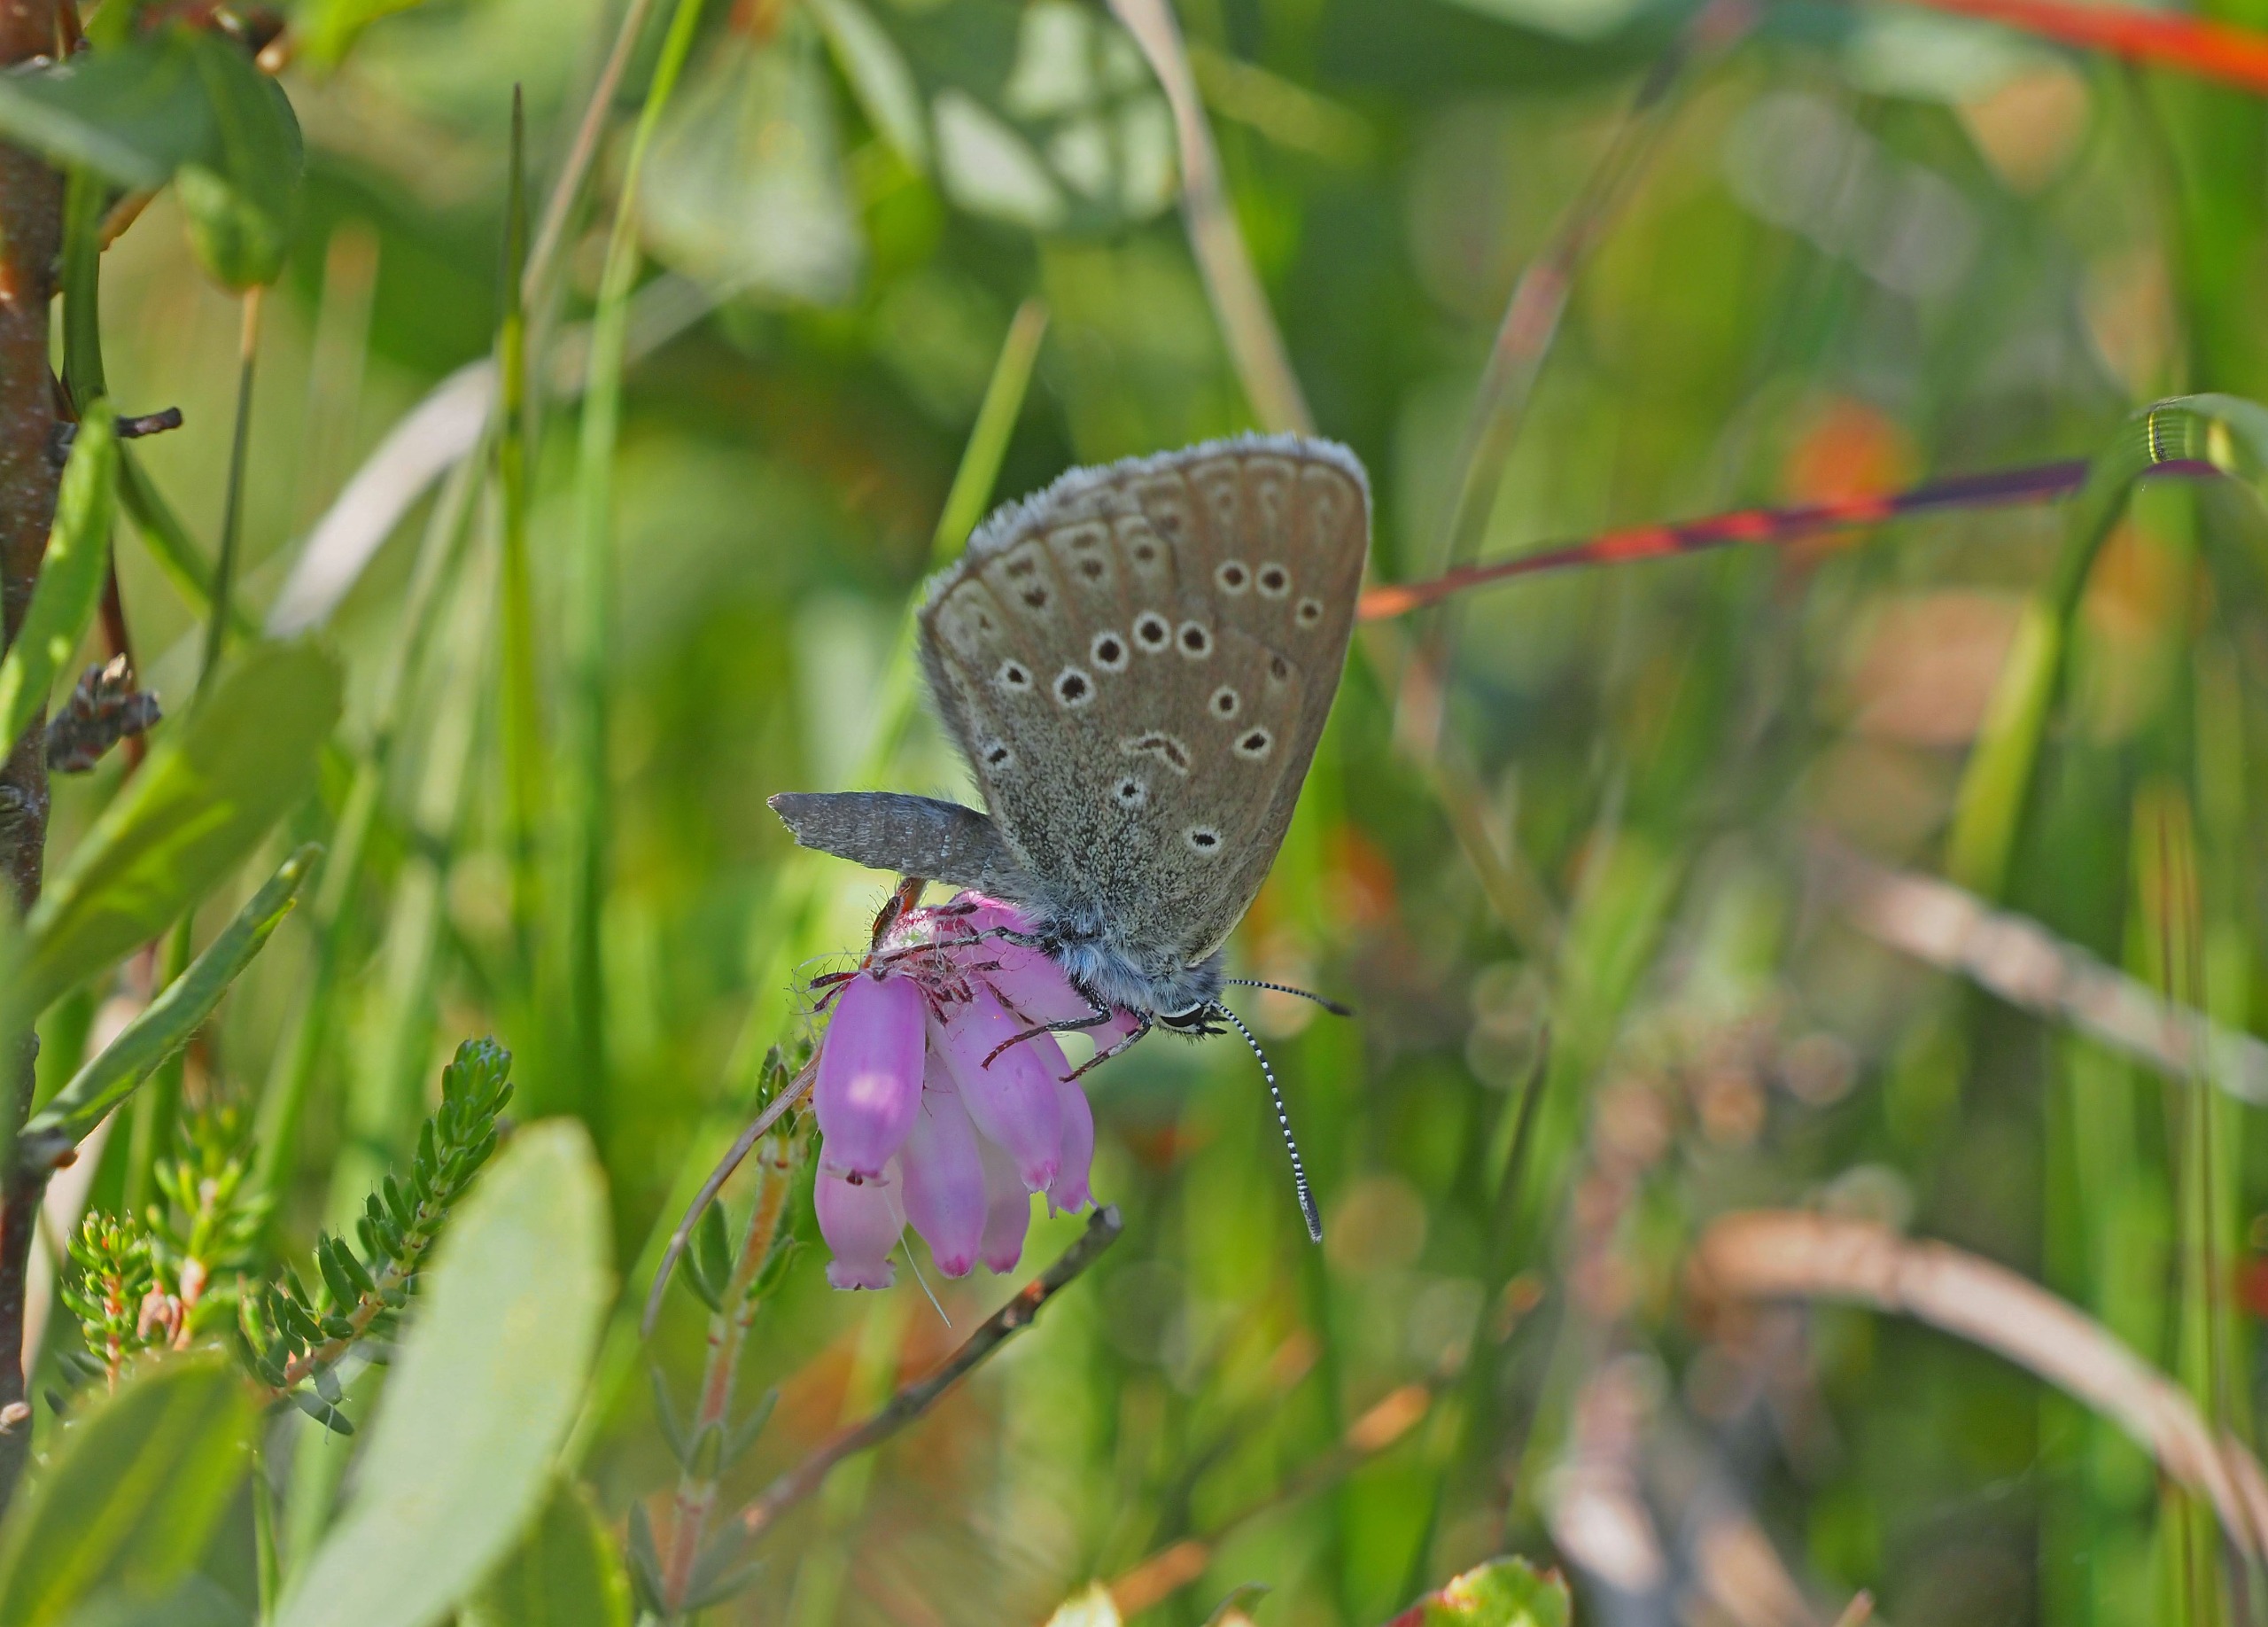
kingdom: Animalia
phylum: Arthropoda
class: Insecta
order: Lepidoptera
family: Lycaenidae
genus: Maculinea
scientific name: Maculinea alcon
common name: Ensianblåfugl
